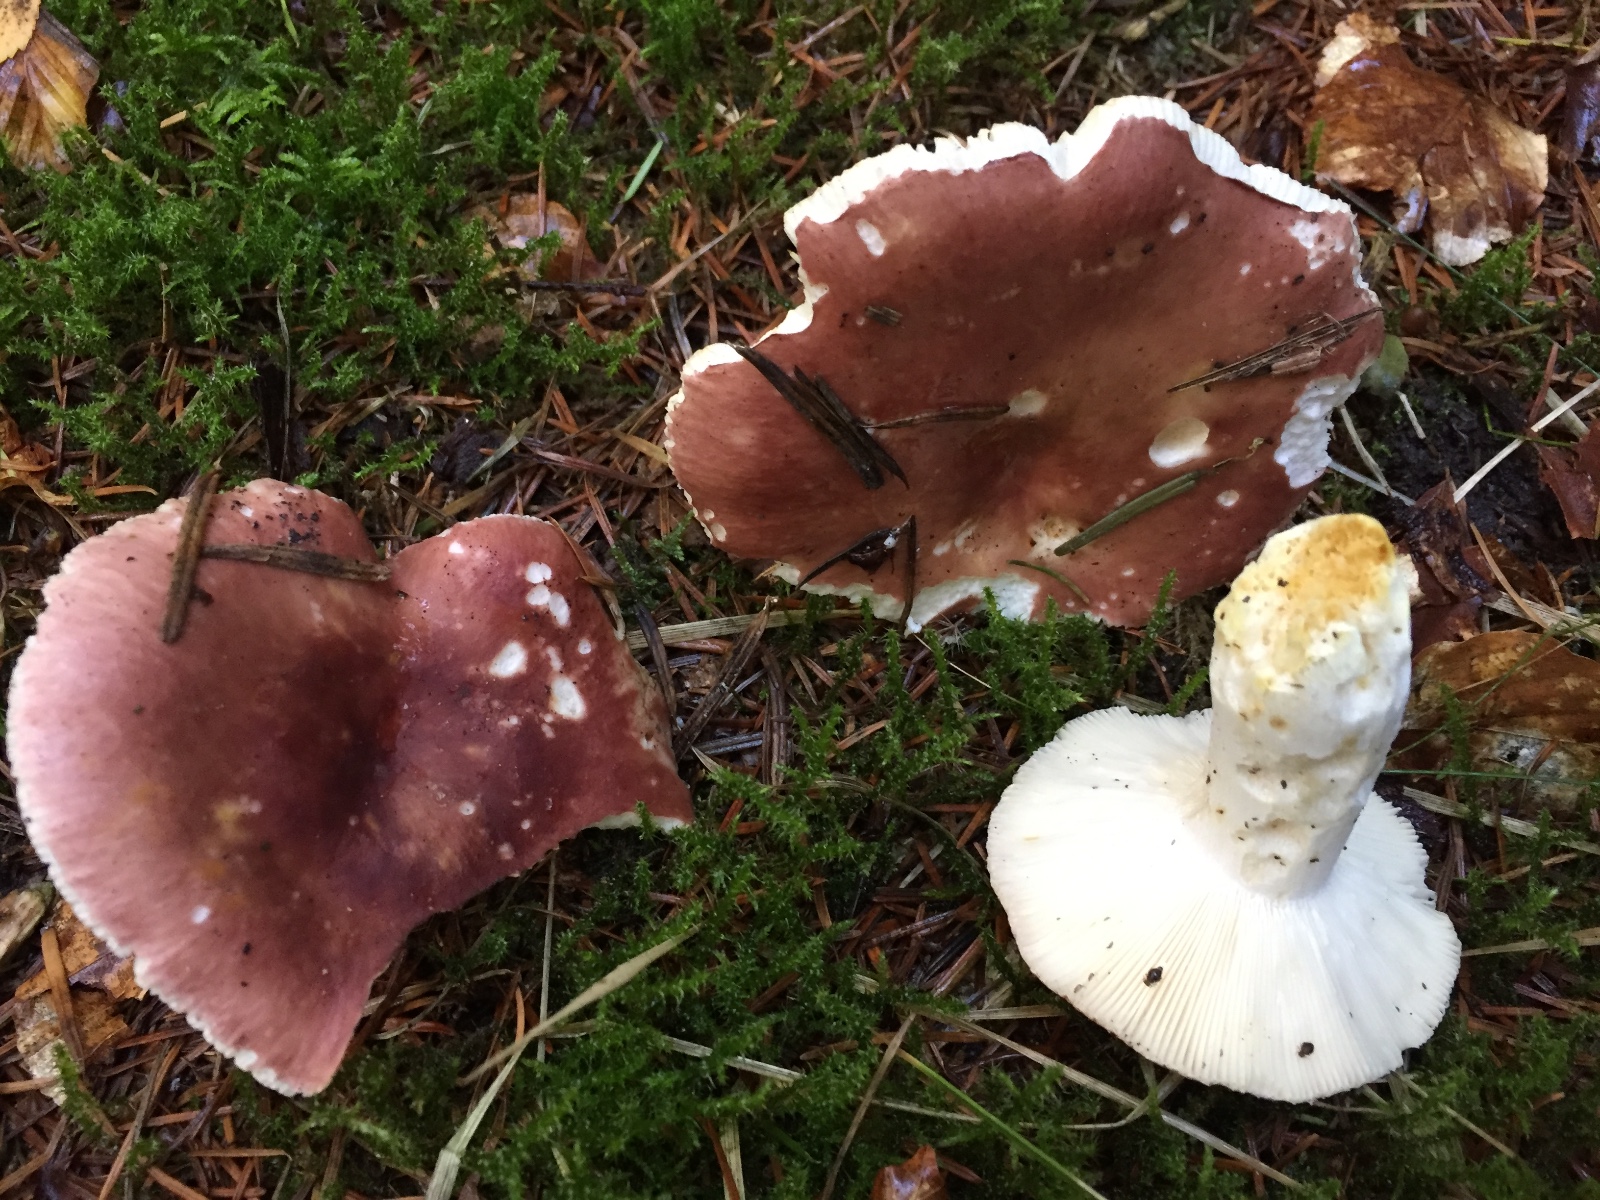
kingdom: Fungi
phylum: Basidiomycota
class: Agaricomycetes
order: Russulales
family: Russulaceae
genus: Russula
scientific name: Russula vesca
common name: spiselig skørhat
